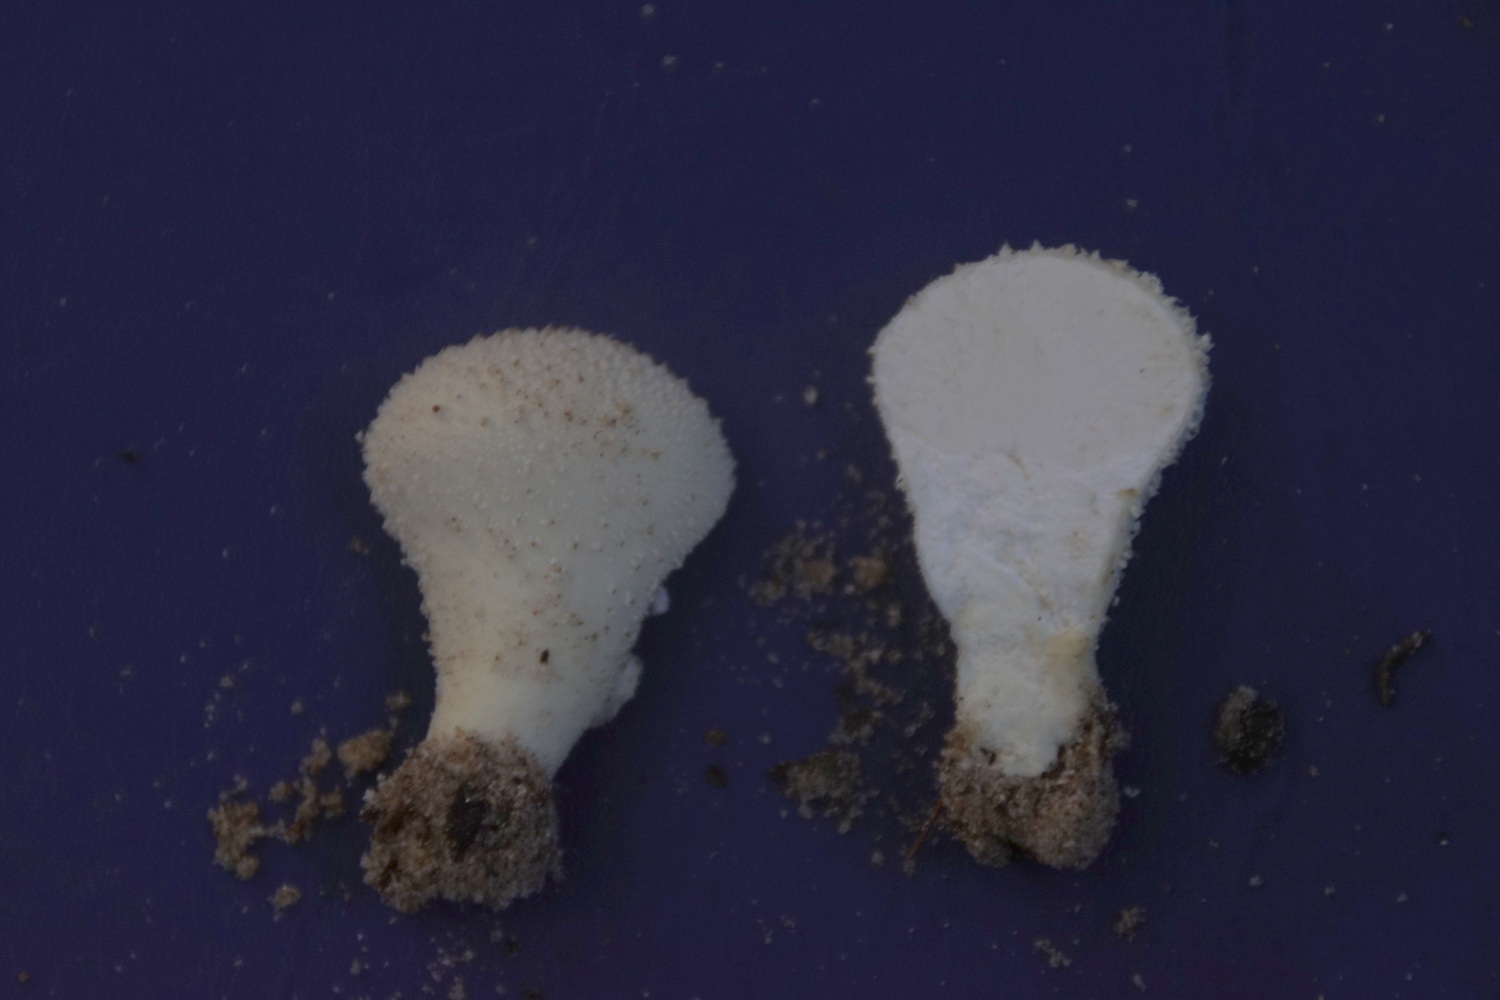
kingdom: Fungi
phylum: Basidiomycota
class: Agaricomycetes
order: Agaricales
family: Lycoperdaceae
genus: Lycoperdon
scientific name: Lycoperdon perlatum
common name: krystal-støvbold
